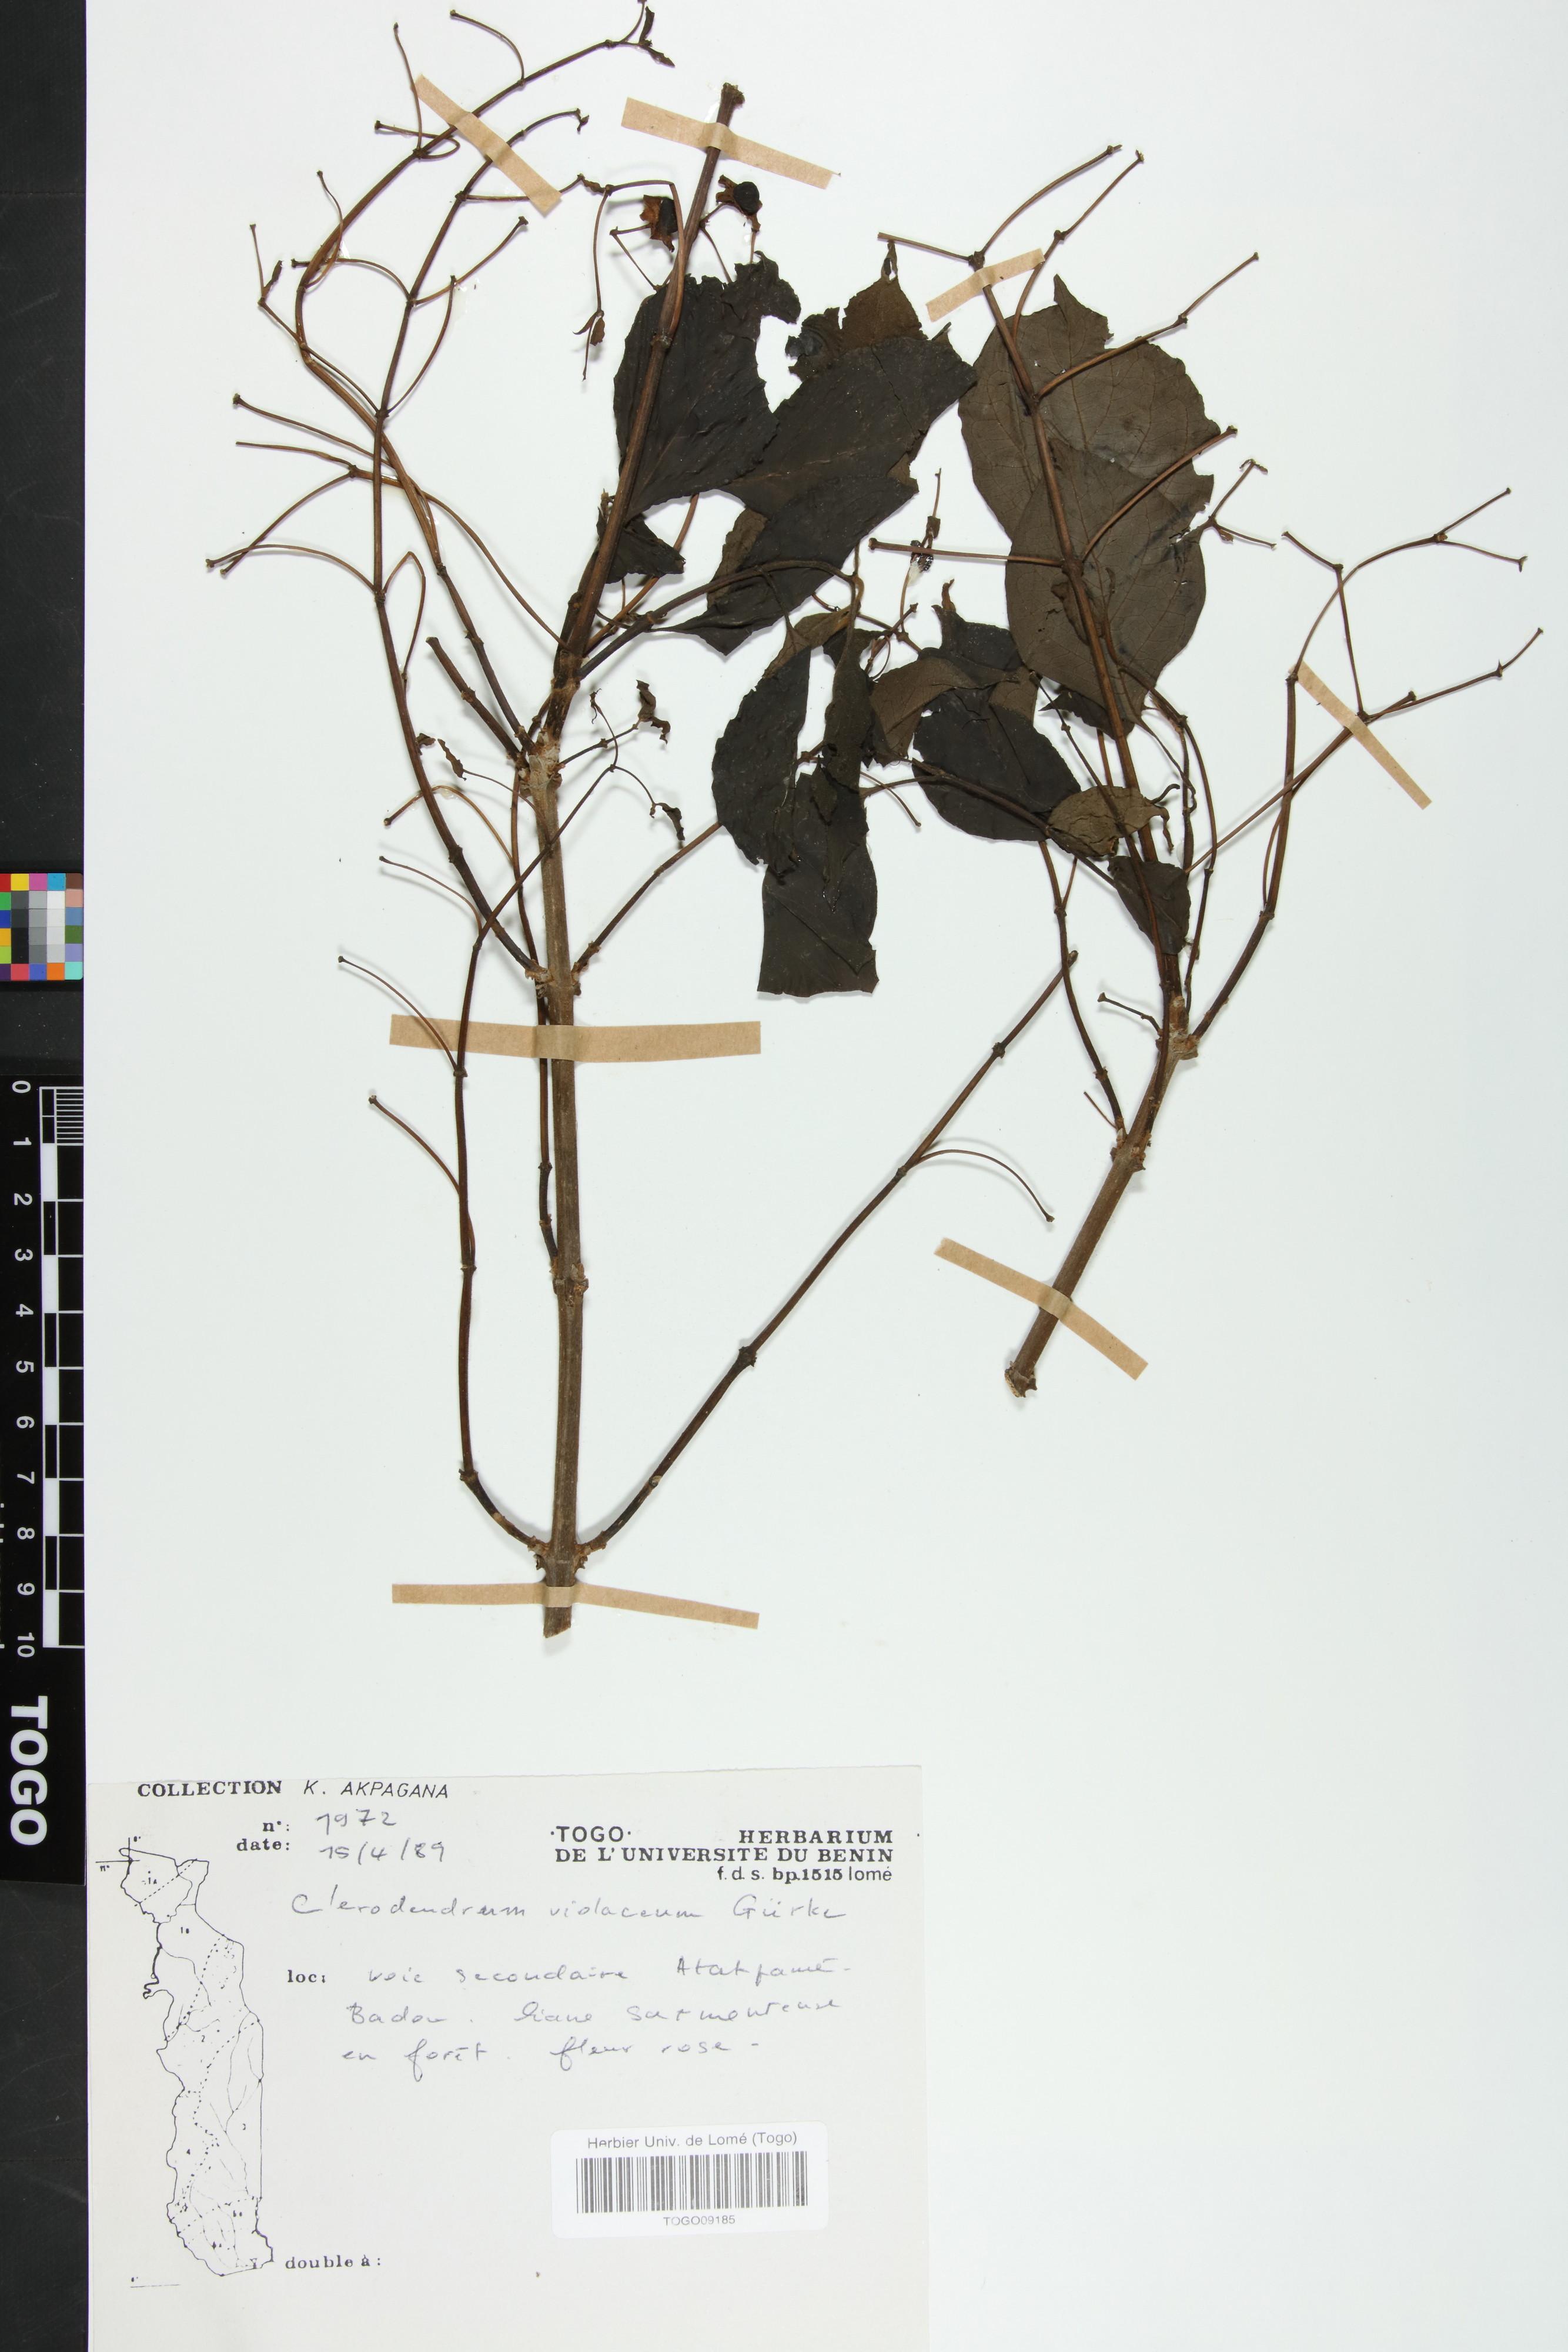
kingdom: Plantae
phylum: Tracheophyta
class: Magnoliopsida
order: Lamiales
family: Lamiaceae
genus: Rotheca
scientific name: Rotheca violacea
